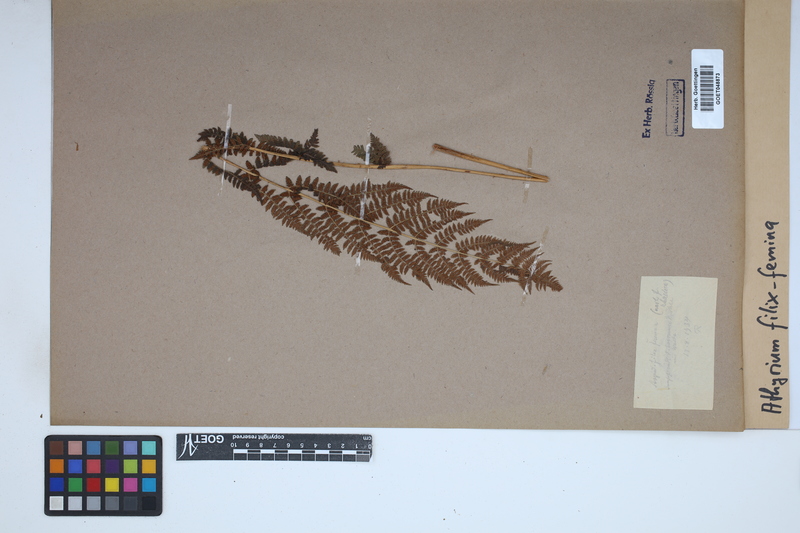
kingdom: Plantae
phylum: Tracheophyta
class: Polypodiopsida
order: Polypodiales
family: Athyriaceae
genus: Athyrium
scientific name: Athyrium filix-femina
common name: Lady fern
